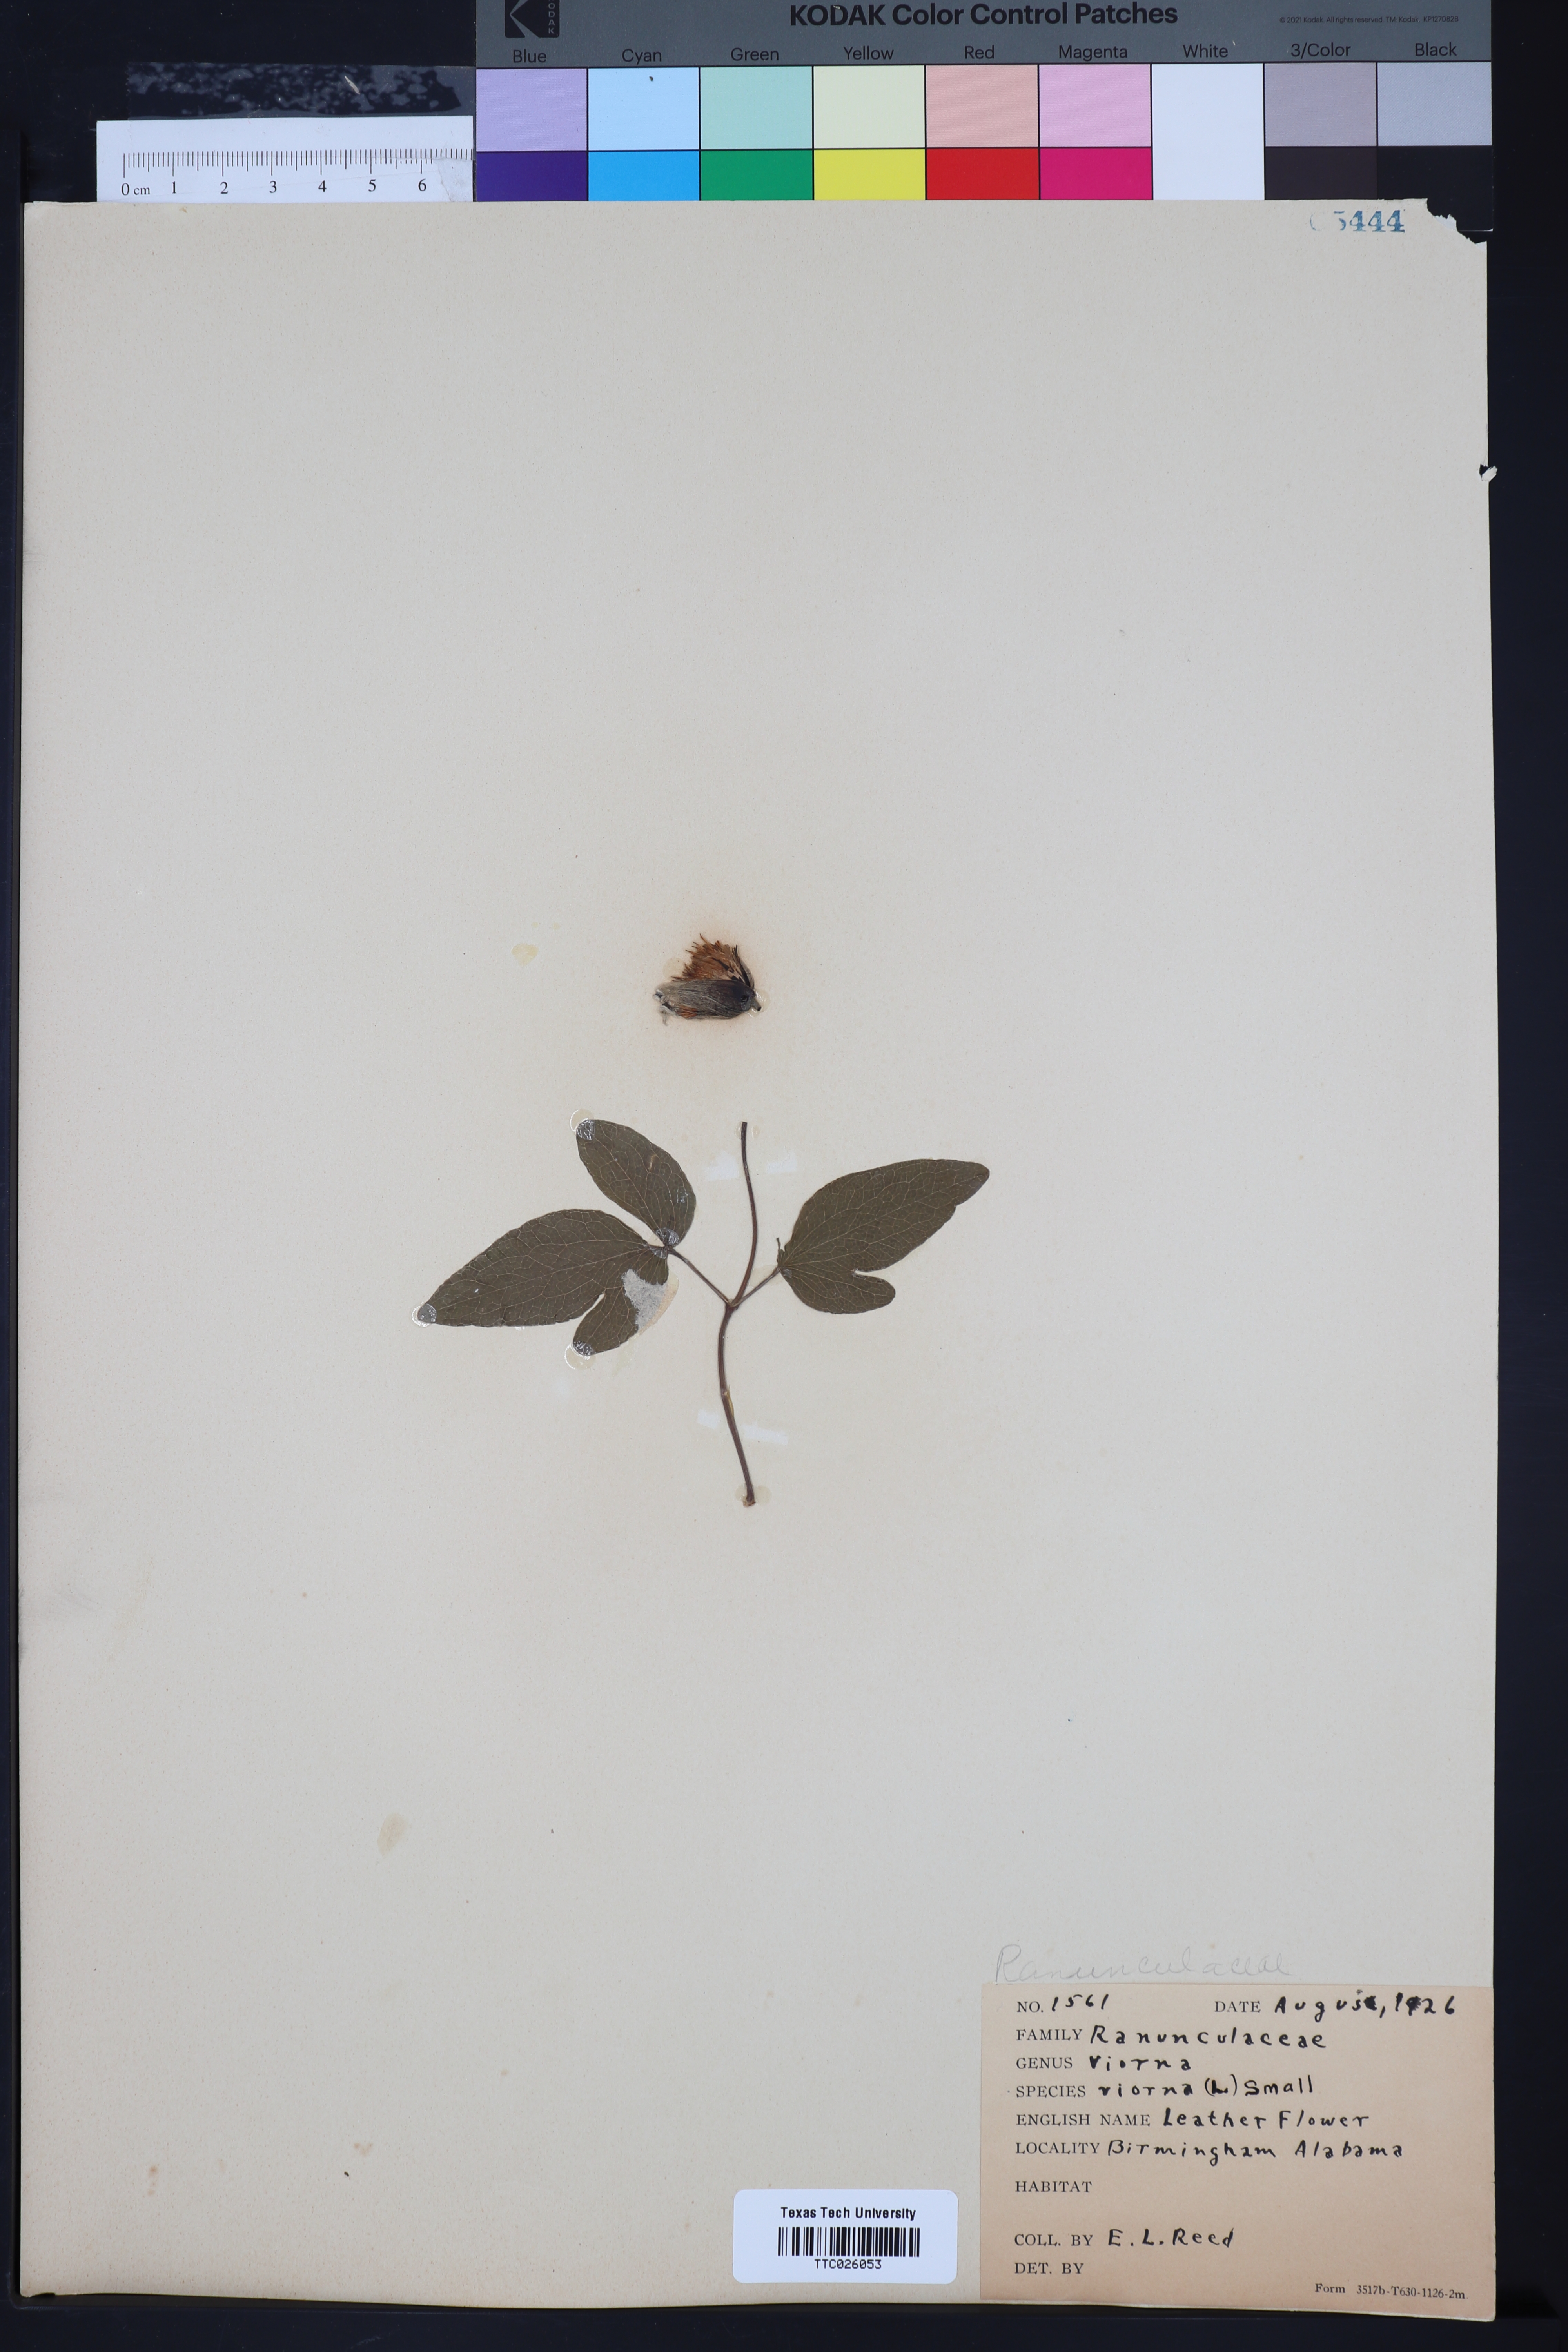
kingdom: Plantae
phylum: Tracheophyta
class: Magnoliopsida
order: Ranunculales
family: Ranunculaceae
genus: Viorna
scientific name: Viorna
